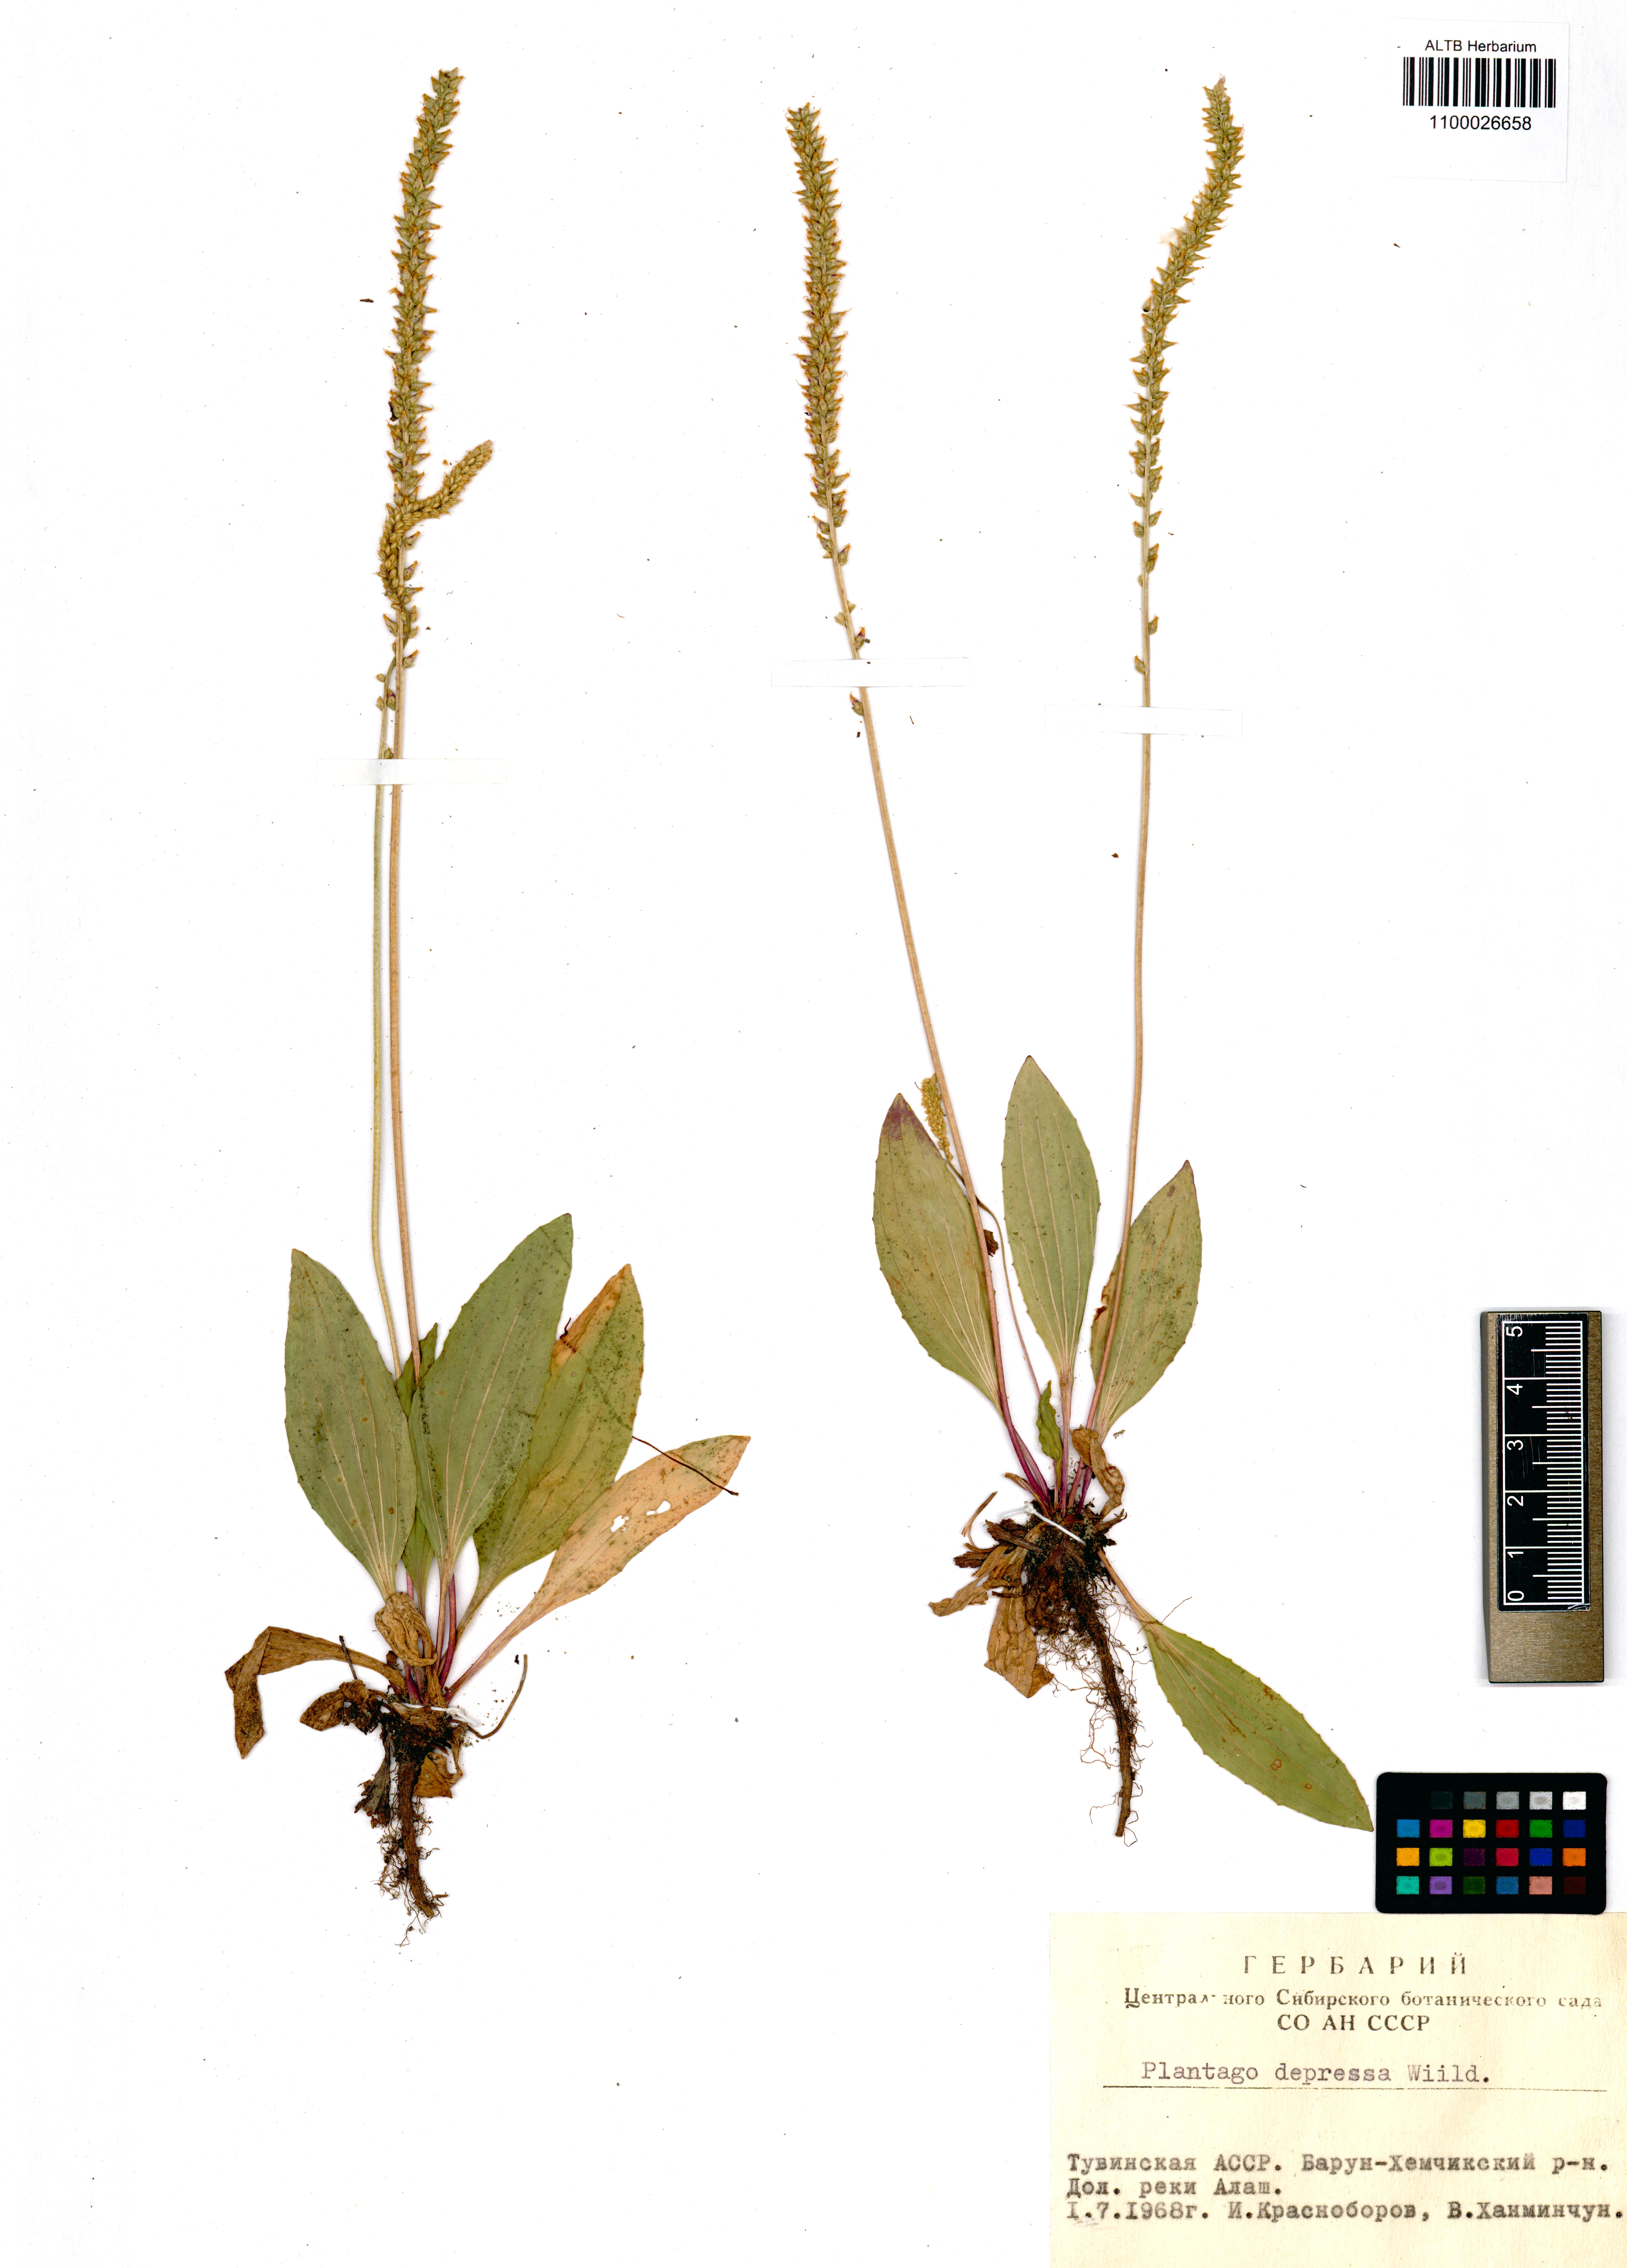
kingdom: Plantae
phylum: Tracheophyta
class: Magnoliopsida
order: Lamiales
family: Plantaginaceae
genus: Plantago
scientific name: Plantago depressa
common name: Depressed plantain
